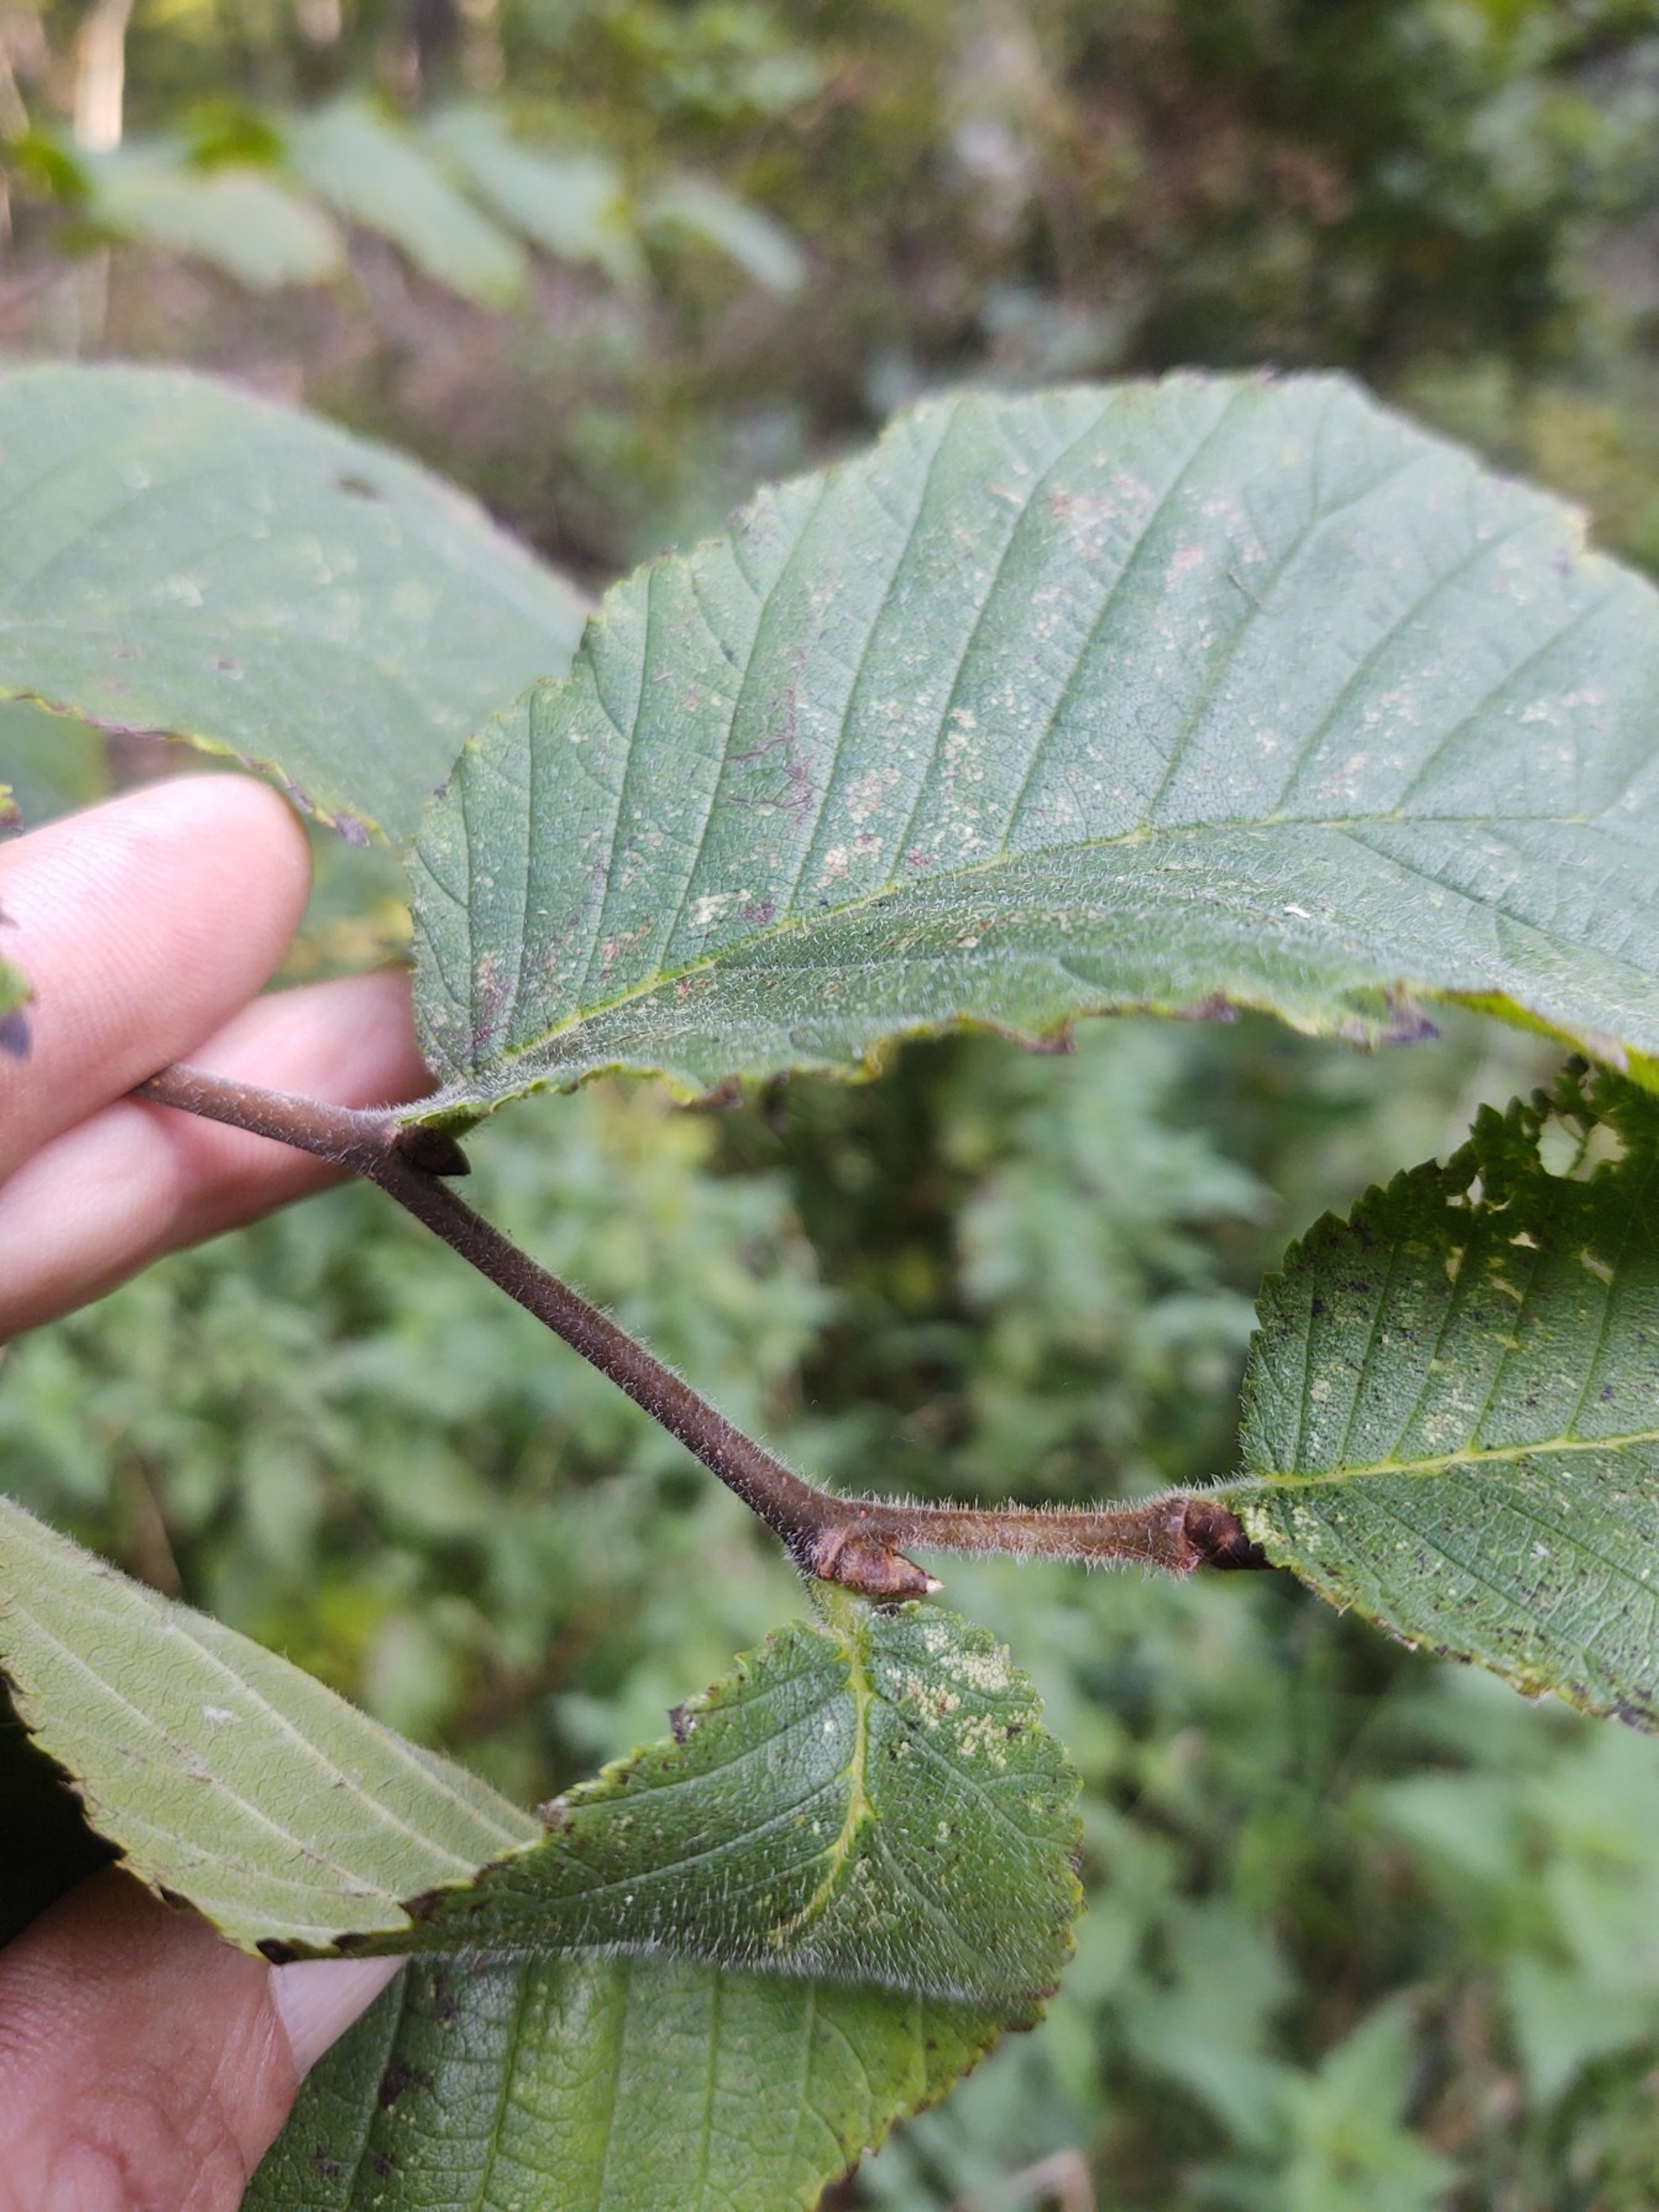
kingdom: Plantae
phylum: Tracheophyta
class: Magnoliopsida
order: Rosales
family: Ulmaceae
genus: Ulmus
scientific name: Ulmus glabra
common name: Skov-elm/storbladet elm
